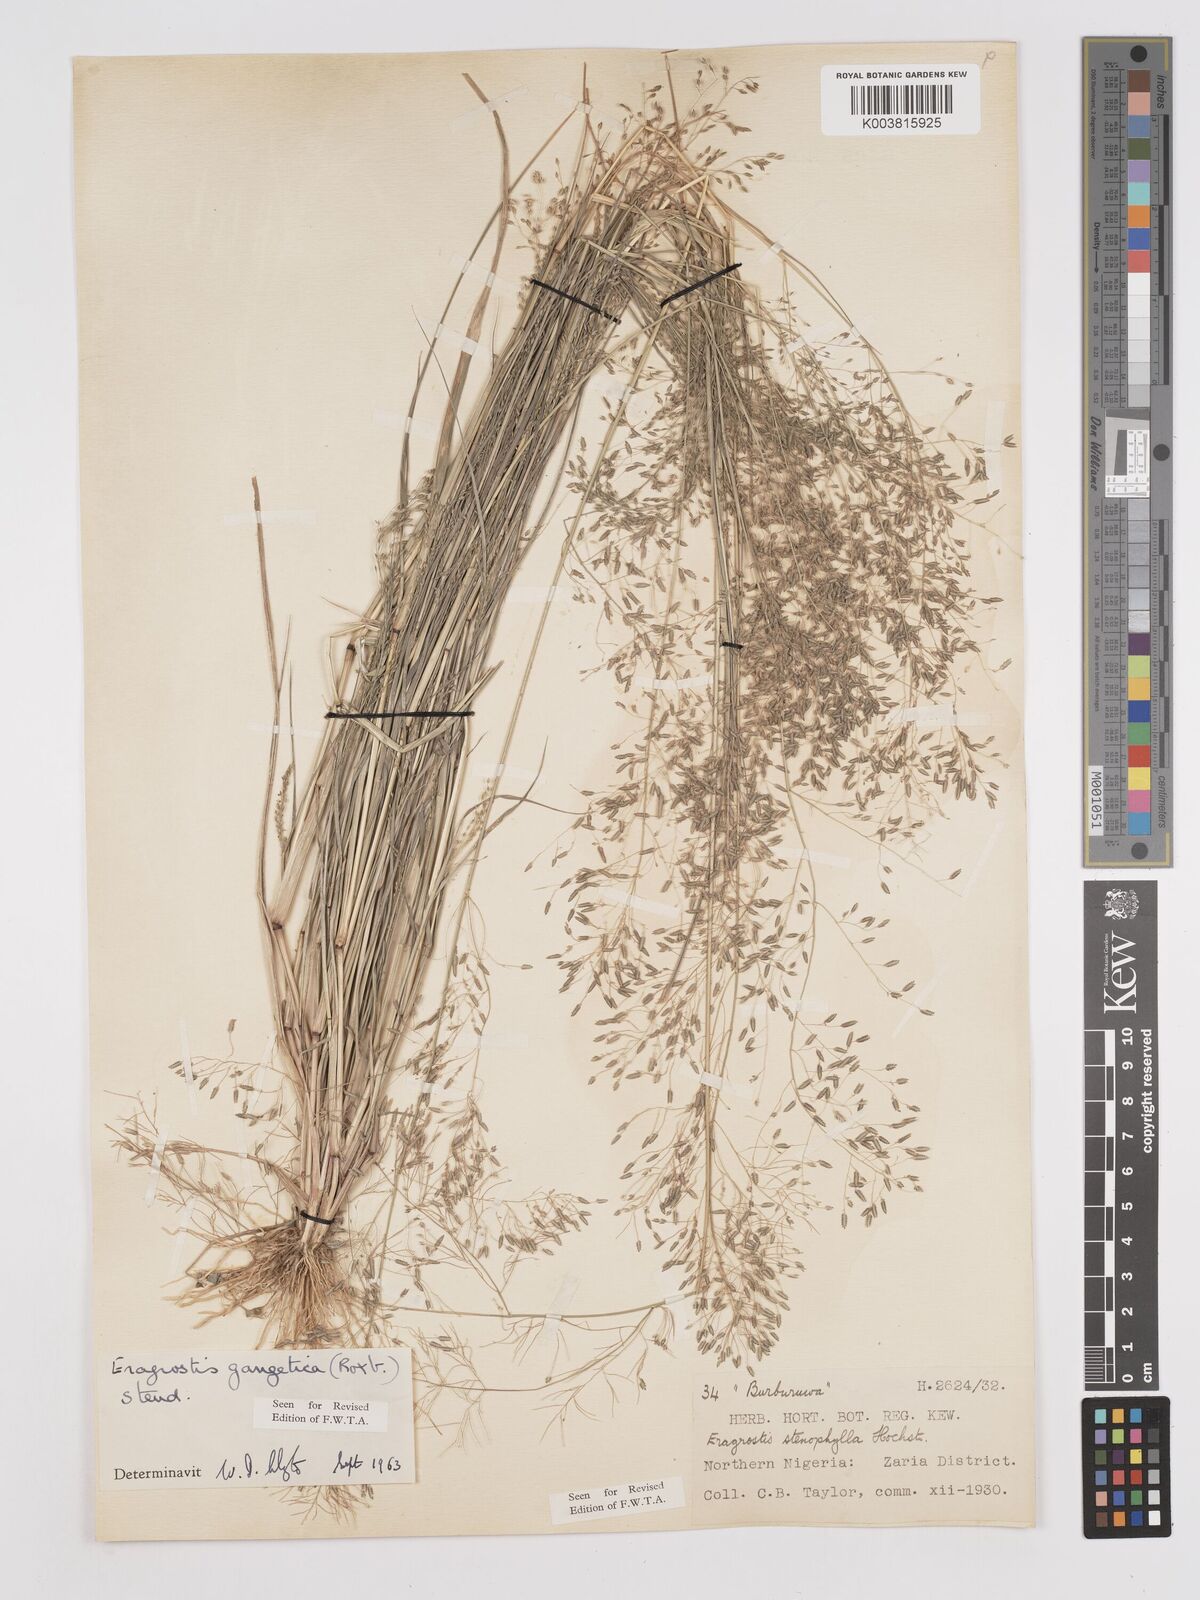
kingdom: Plantae
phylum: Tracheophyta
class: Liliopsida
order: Poales
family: Poaceae
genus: Eragrostis
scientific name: Eragrostis gangetica
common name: Slimflower lovegrass
